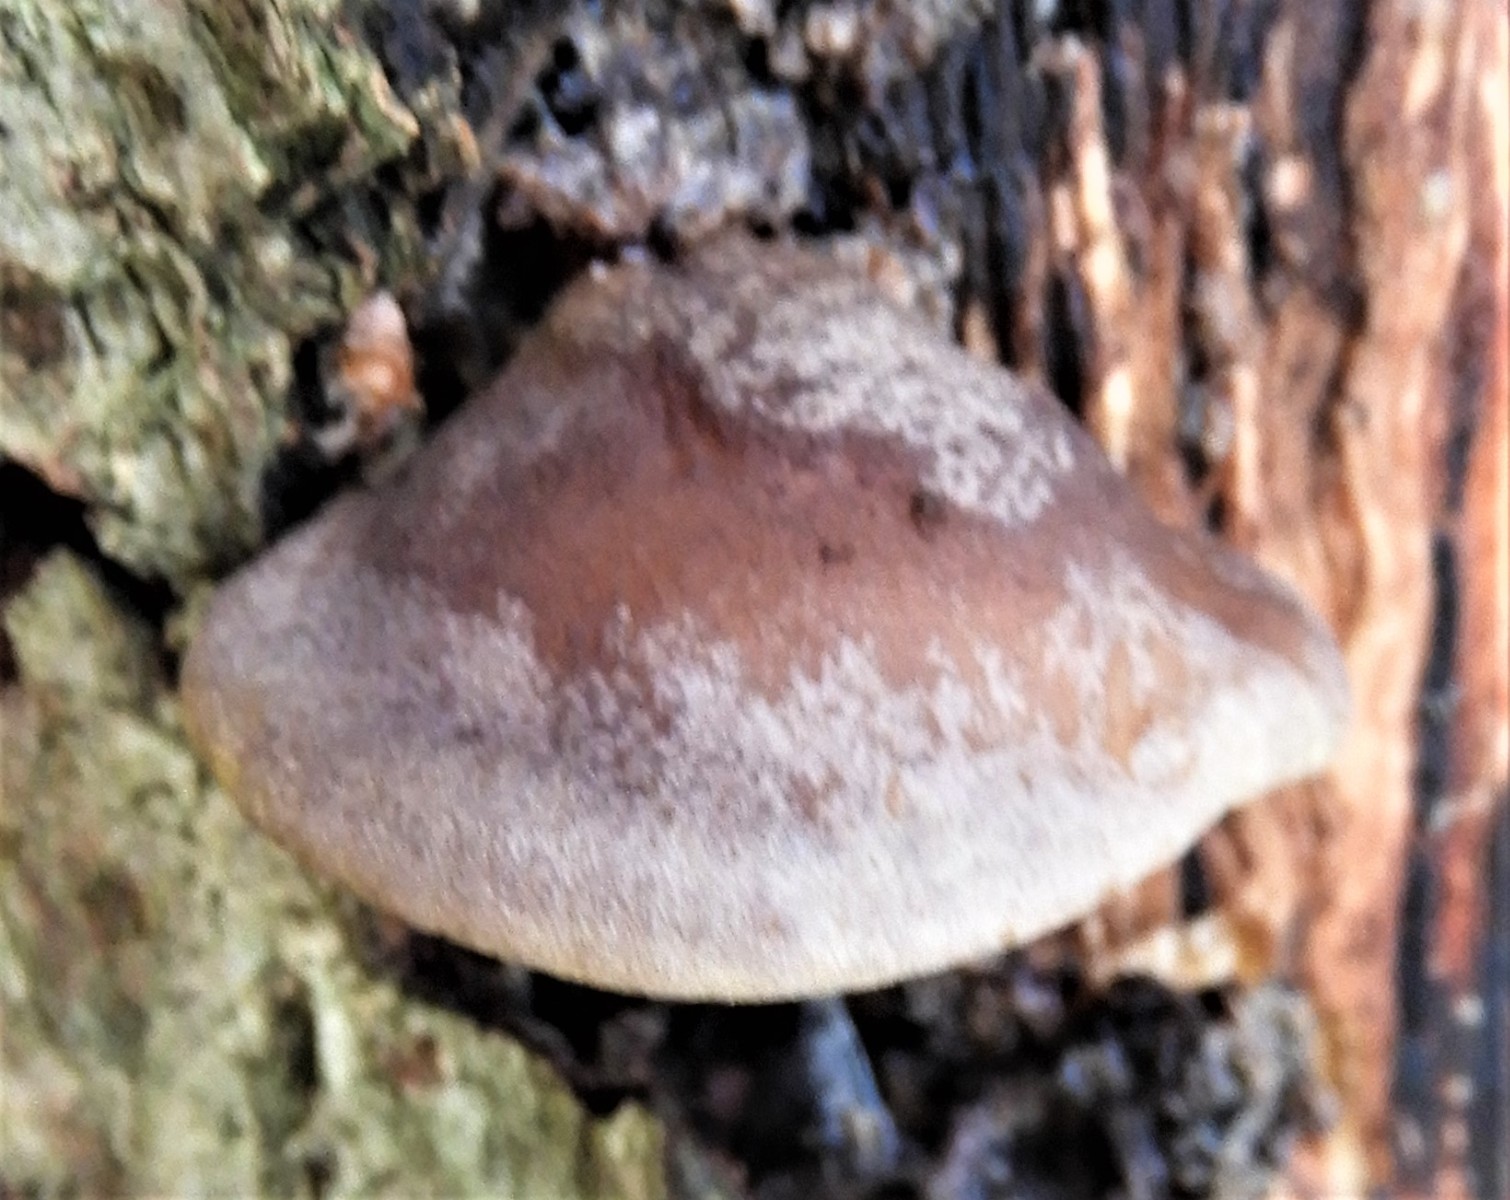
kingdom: Fungi
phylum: Basidiomycota
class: Agaricomycetes
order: Agaricales
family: Sarcomyxaceae
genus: Sarcomyxa
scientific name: Sarcomyxa serotina
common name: gummihat
